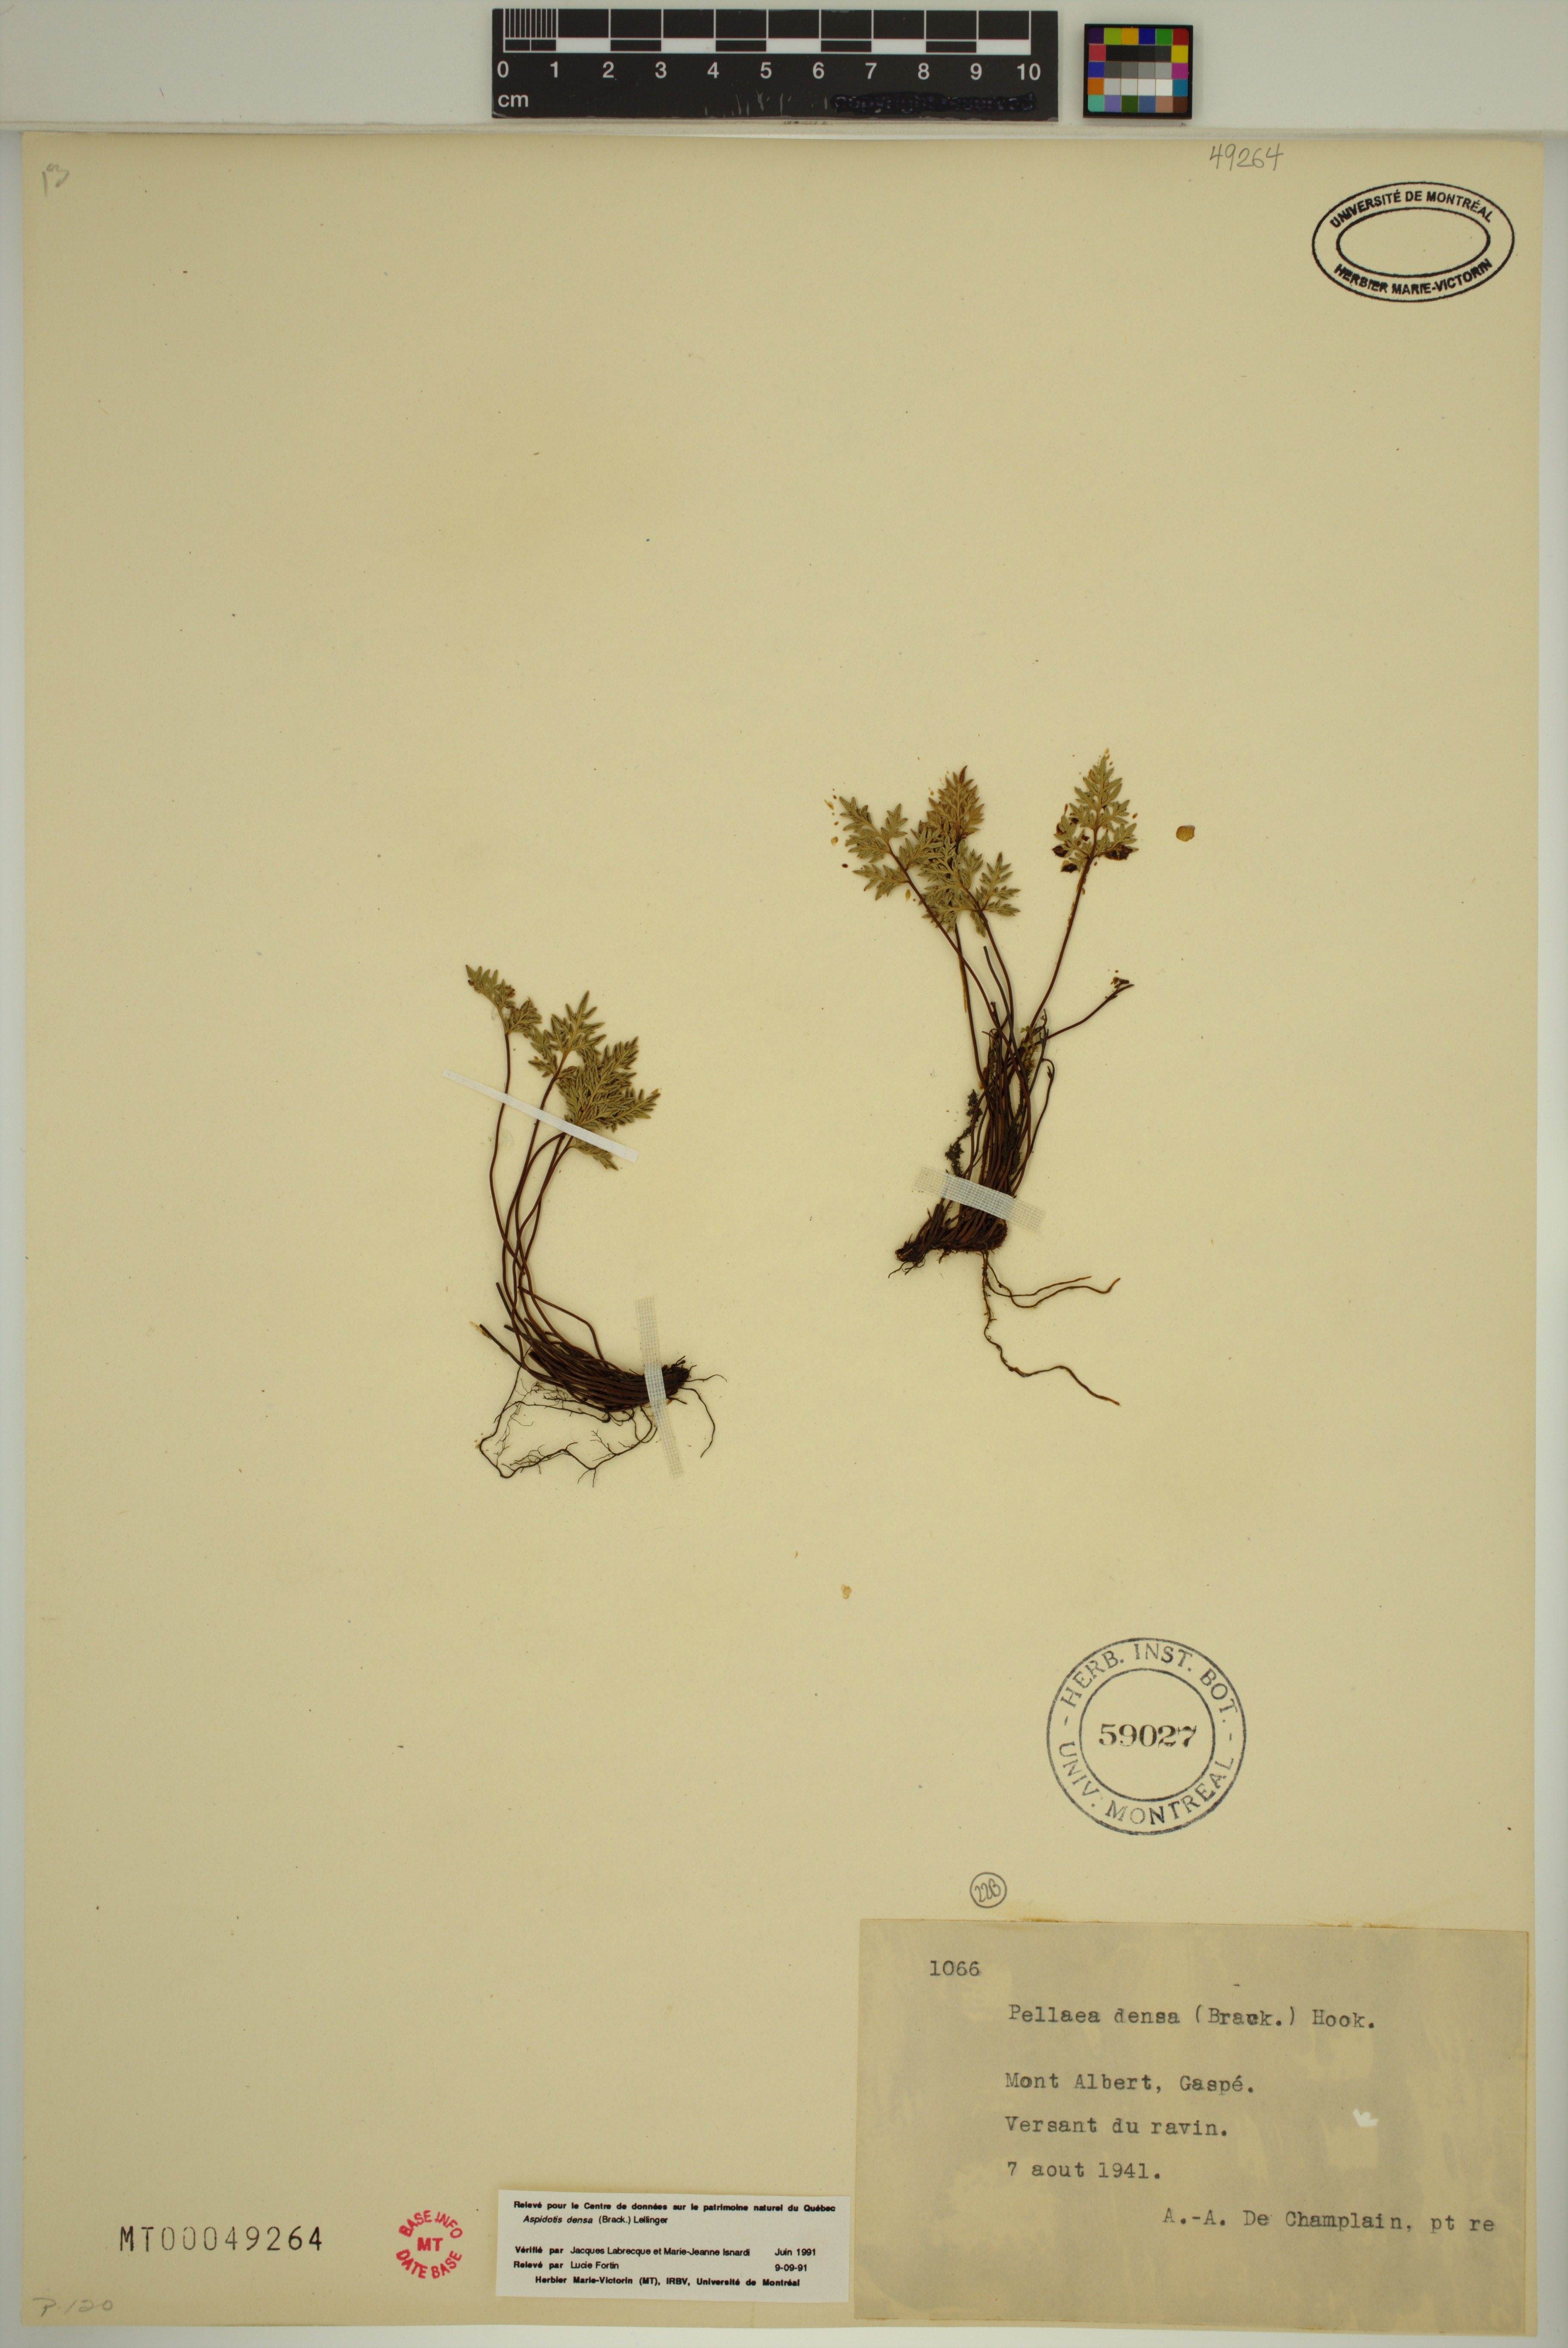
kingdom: Plantae
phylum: Tracheophyta
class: Polypodiopsida
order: Polypodiales
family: Pteridaceae
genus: Aspidotis
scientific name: Aspidotis densa
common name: Indian's dream
